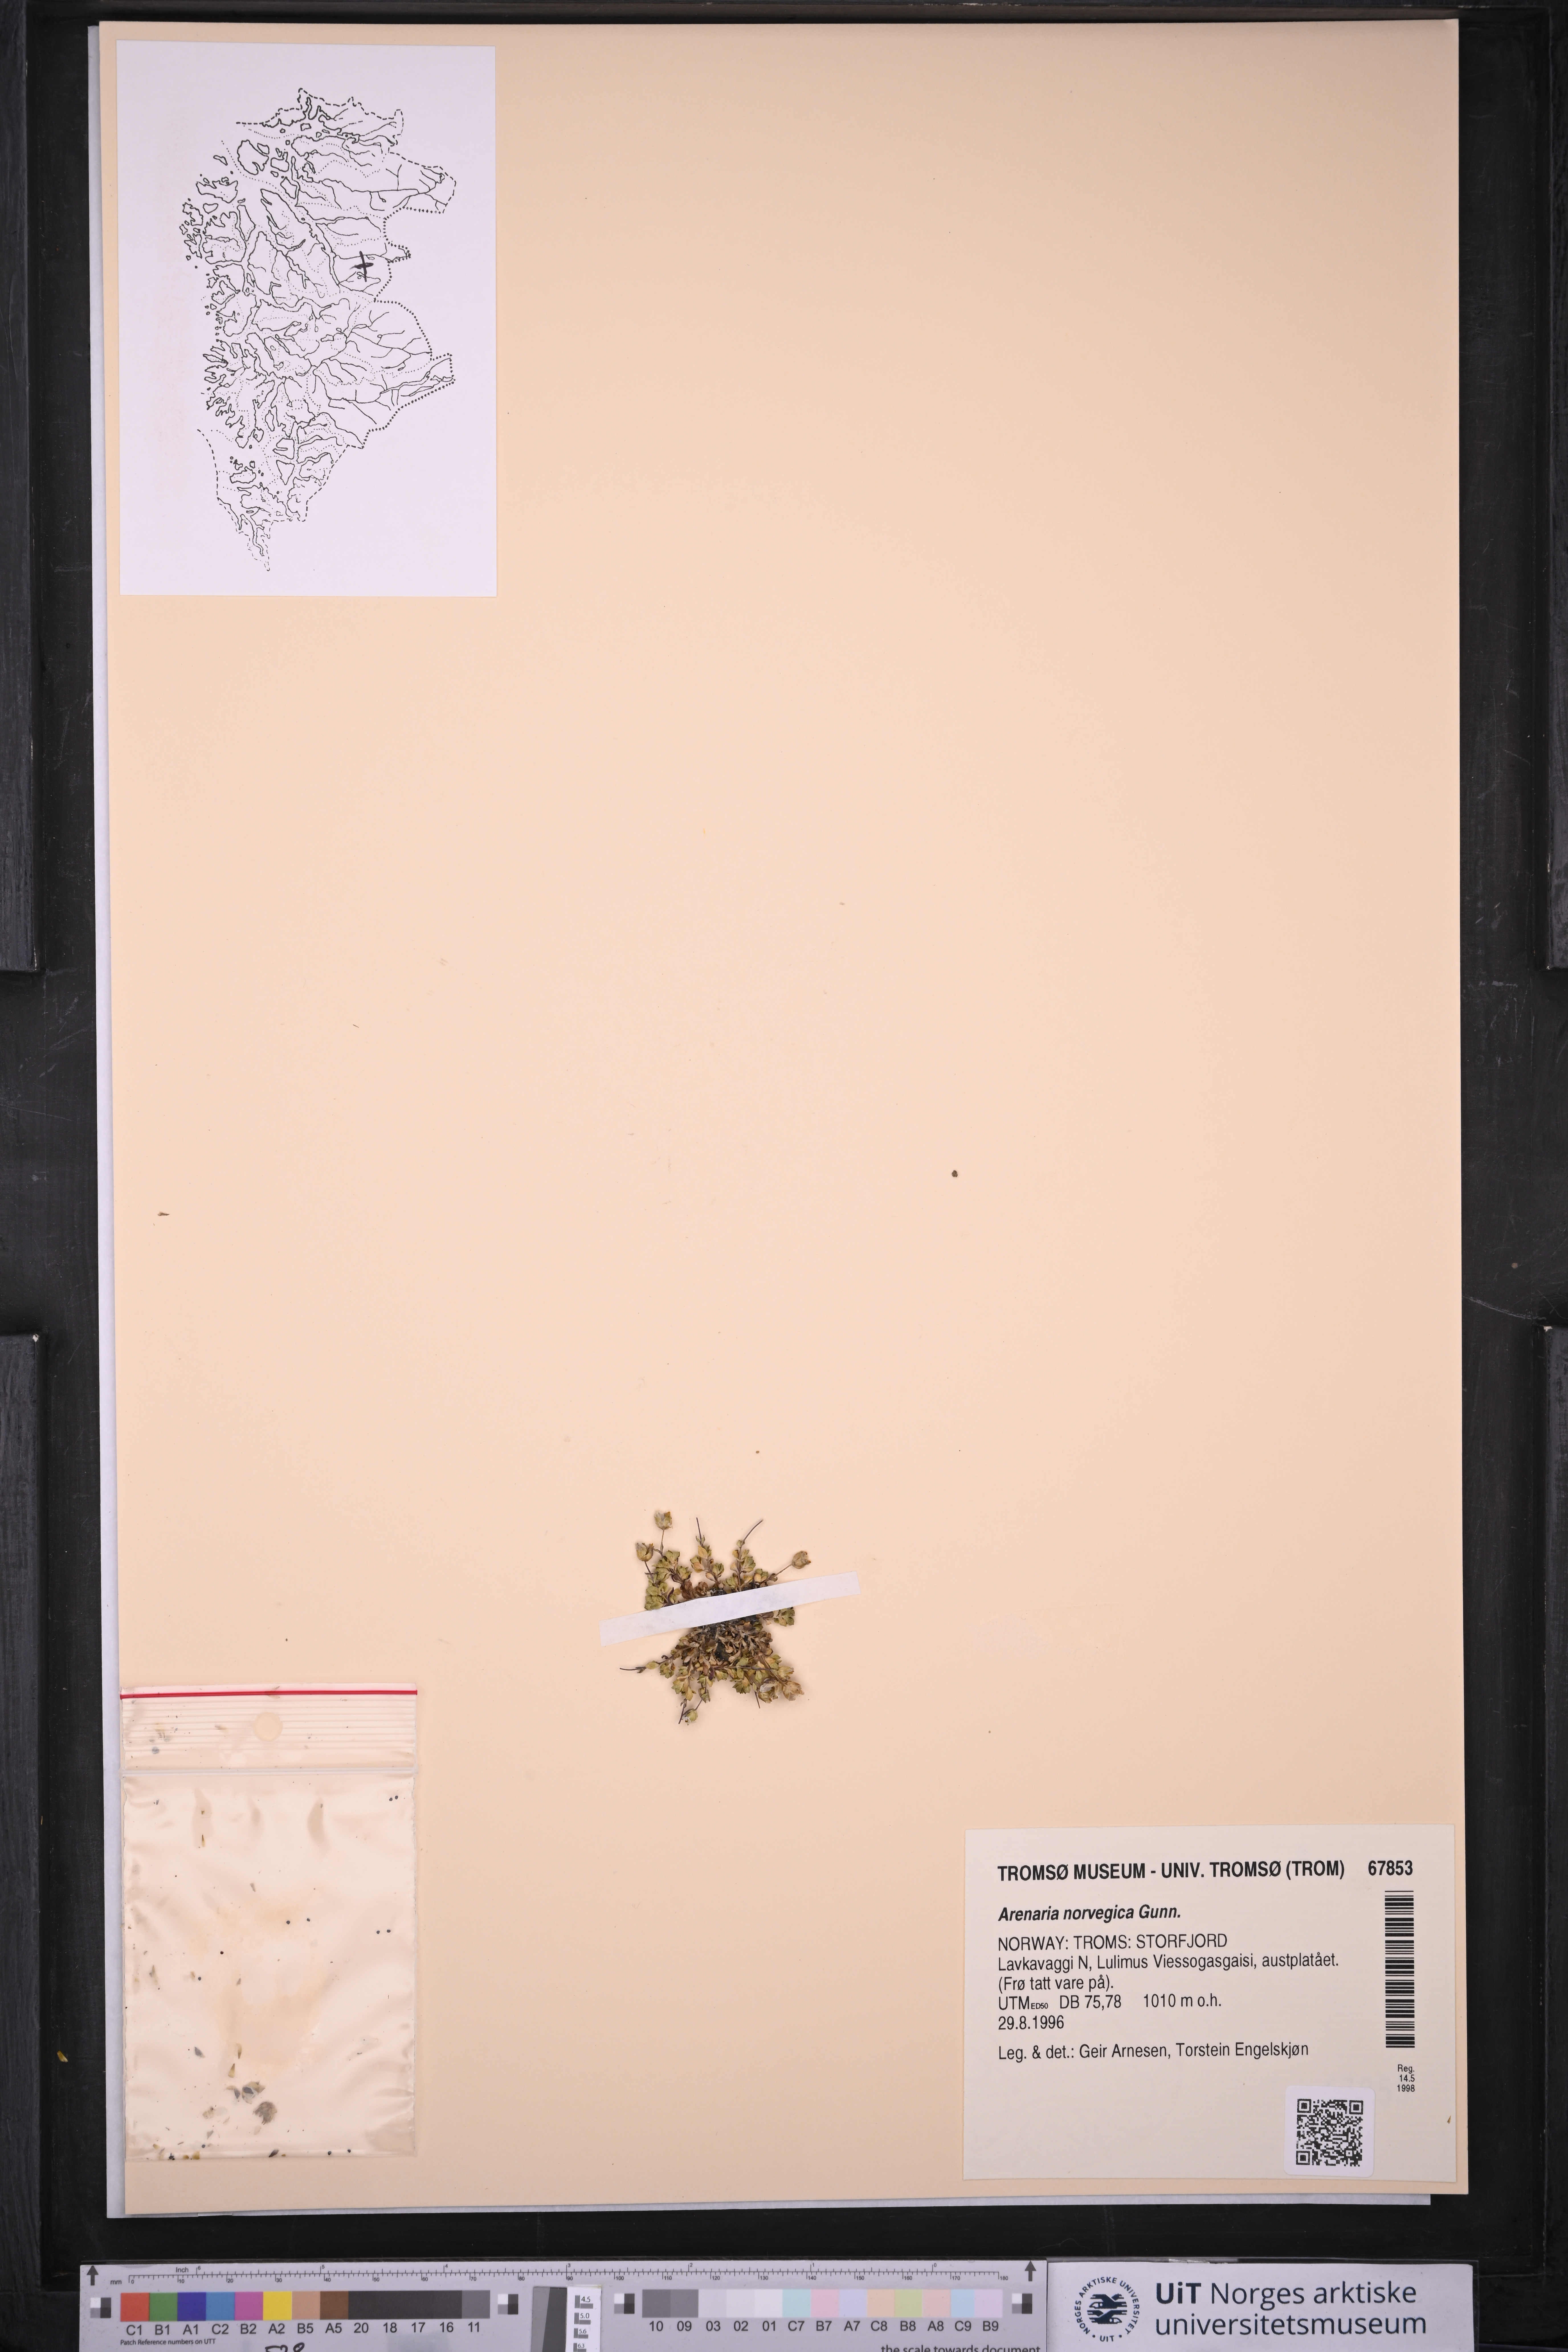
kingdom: Plantae
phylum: Tracheophyta
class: Magnoliopsida
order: Caryophyllales
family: Caryophyllaceae
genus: Arenaria
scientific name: Arenaria norvegica
